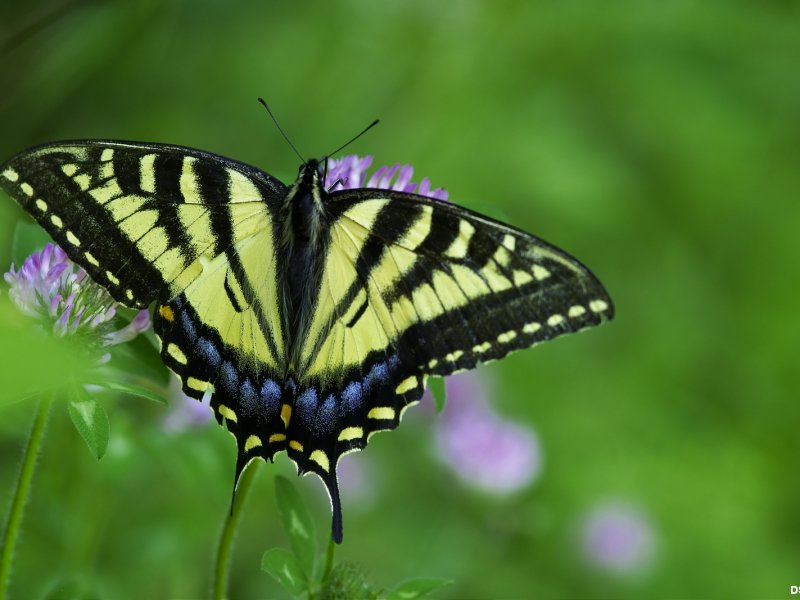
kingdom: Animalia
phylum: Arthropoda
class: Insecta
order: Lepidoptera
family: Papilionidae
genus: Pterourus
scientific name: Pterourus canadensis
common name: Canadian Tiger Swallowtail
